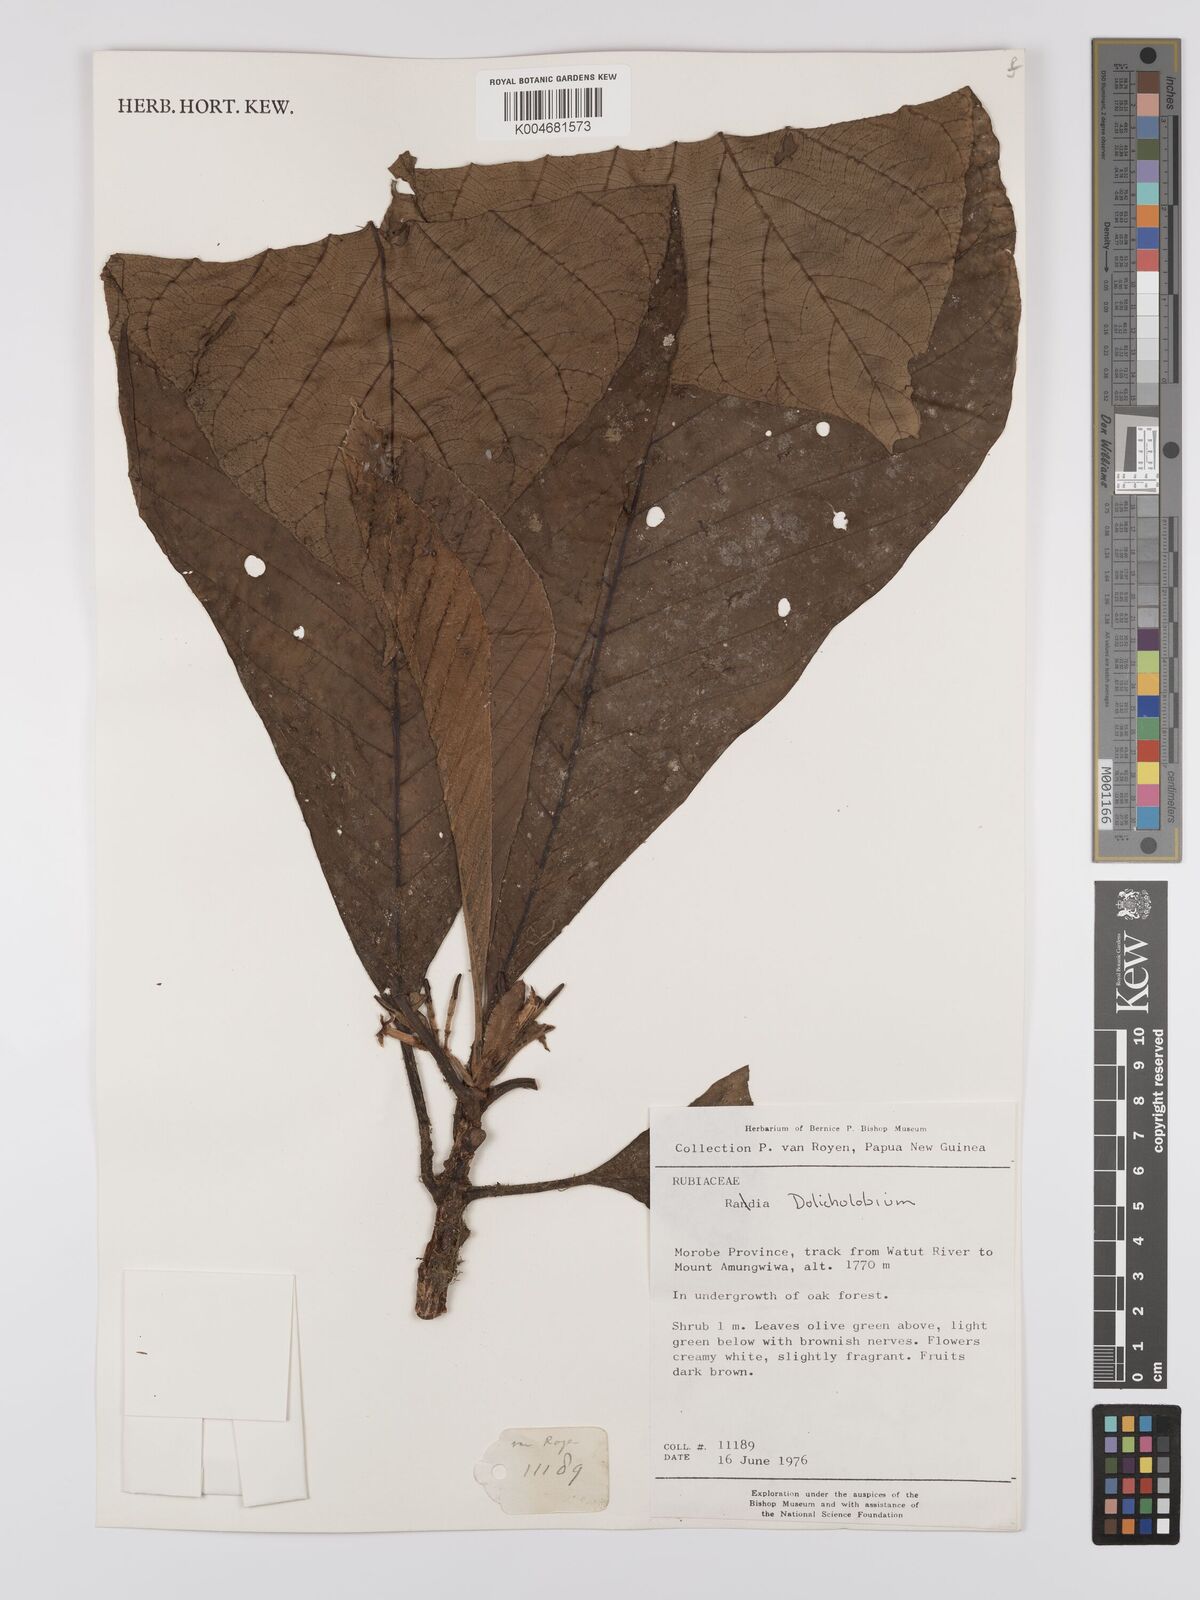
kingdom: Plantae
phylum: Tracheophyta
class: Magnoliopsida
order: Gentianales
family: Rubiaceae
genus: Dolicholobium
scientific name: Dolicholobium
